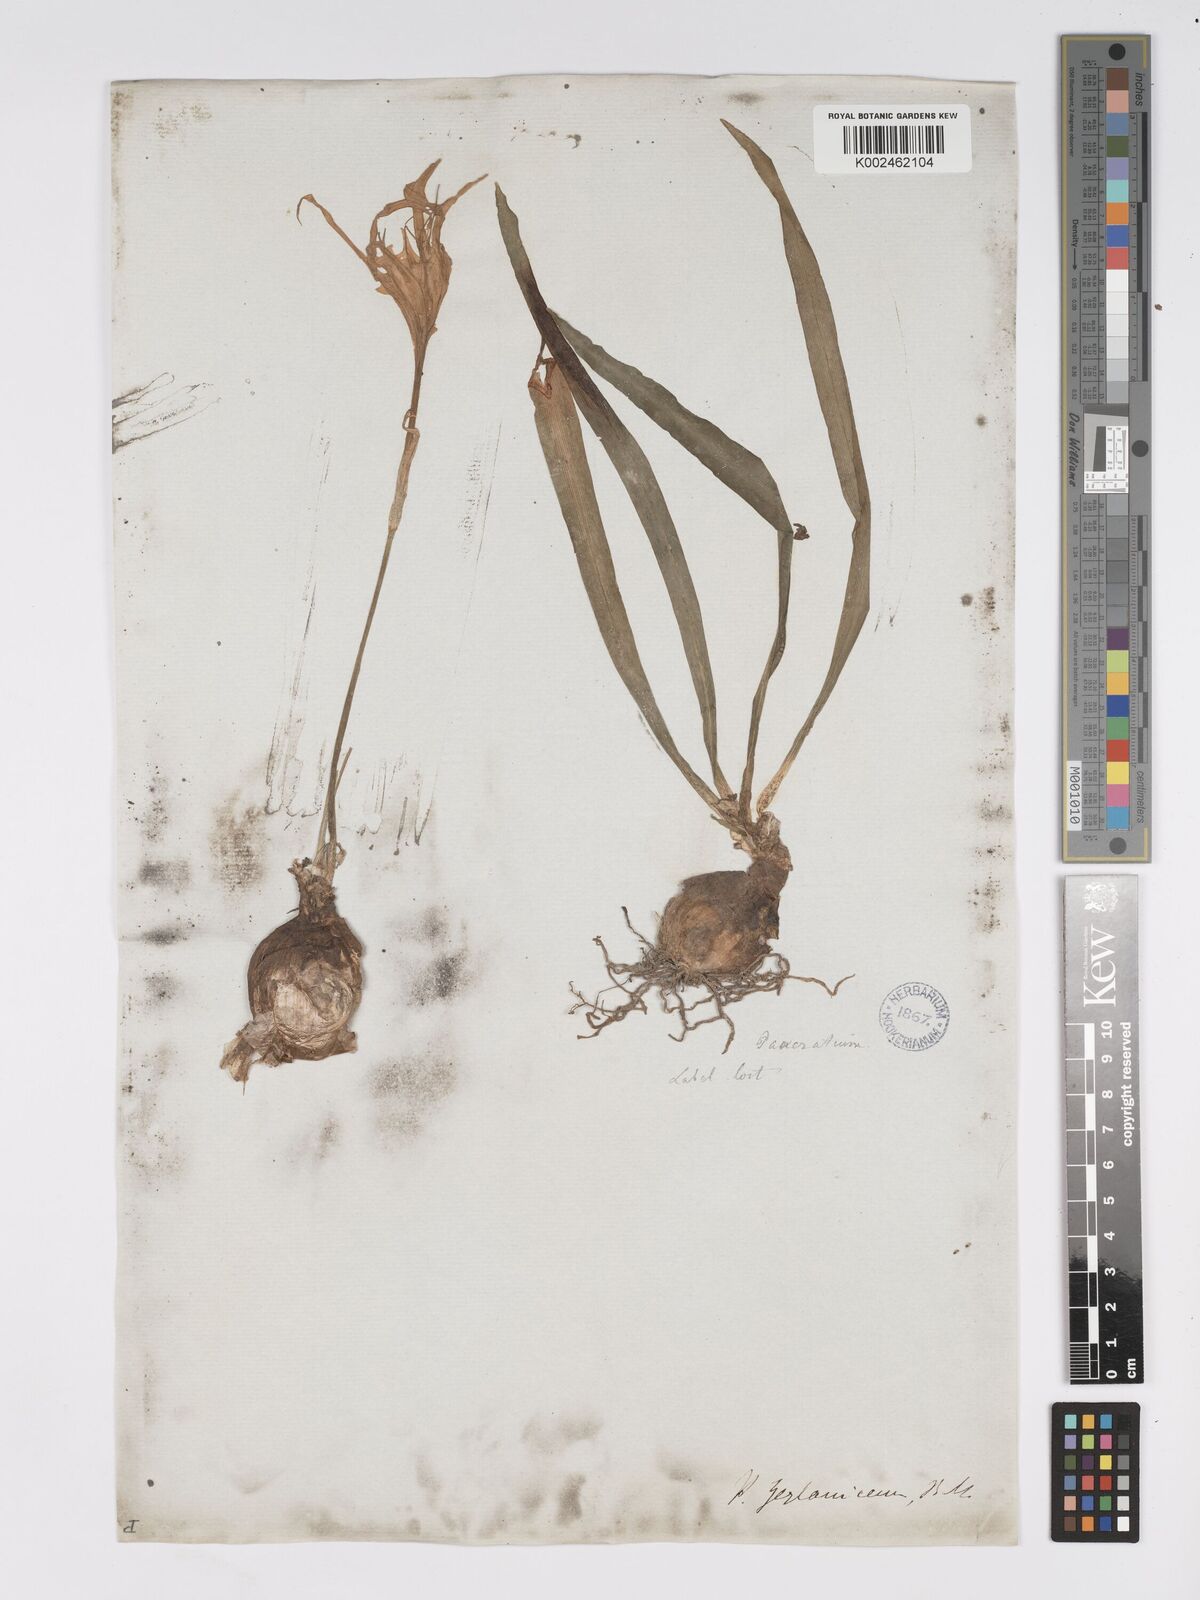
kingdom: Plantae
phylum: Tracheophyta
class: Liliopsida
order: Asparagales
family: Amaryllidaceae
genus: Pancratium
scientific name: Pancratium zeylanicum
